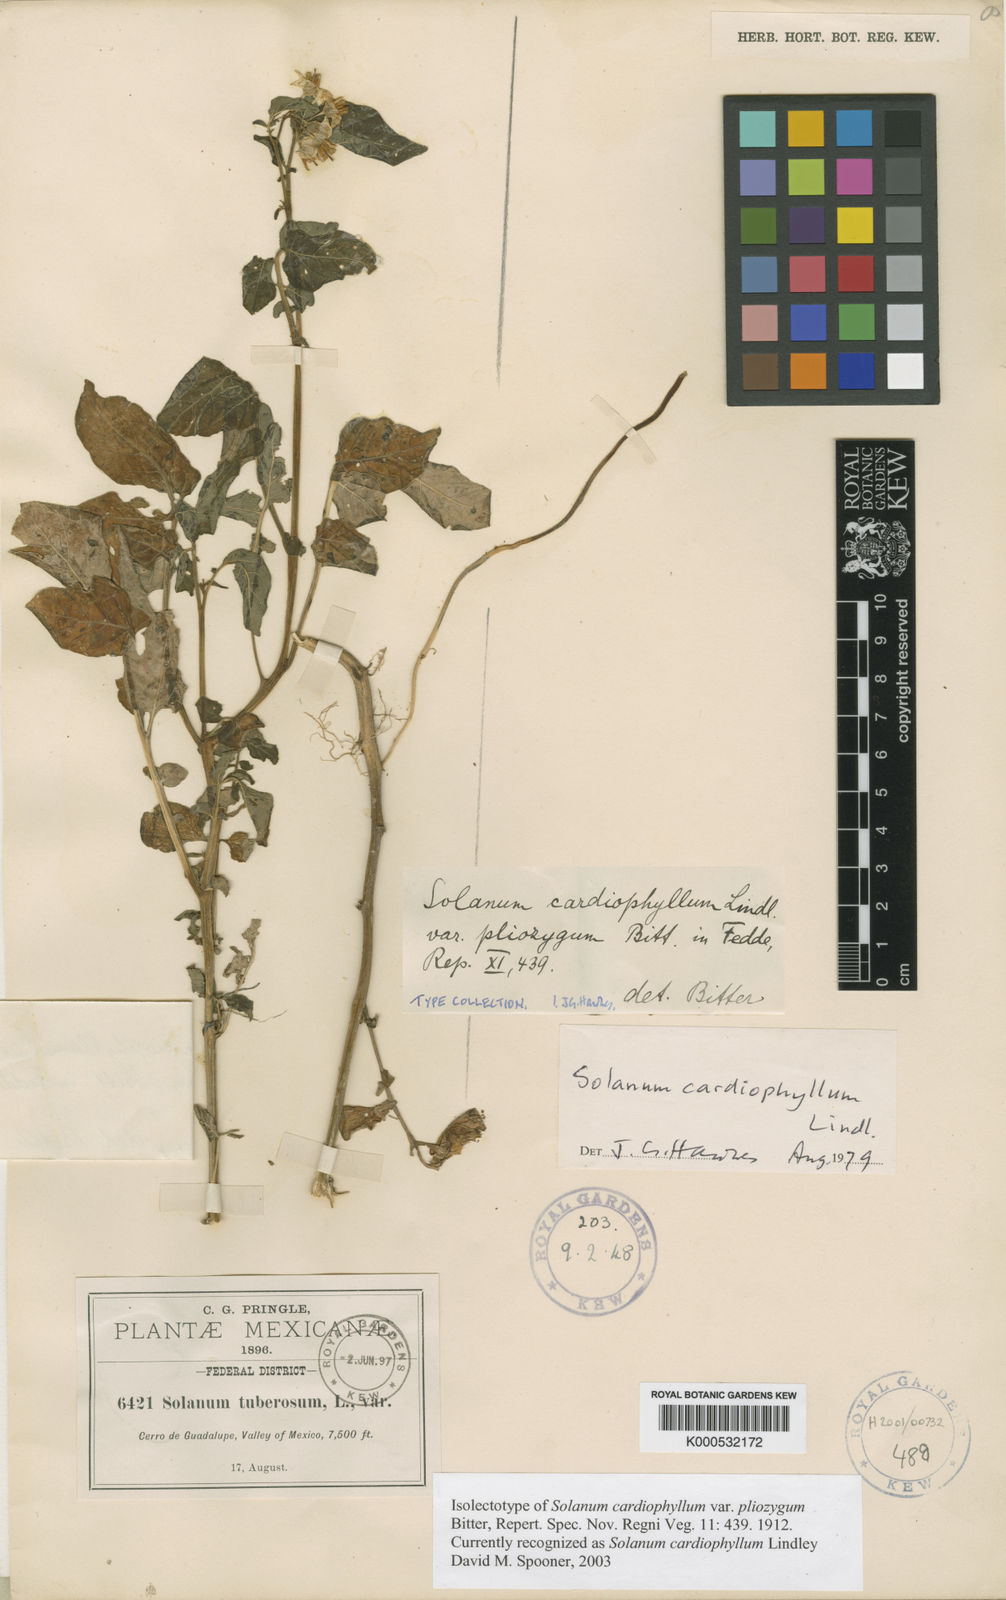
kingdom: Plantae
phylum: Tracheophyta
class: Magnoliopsida
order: Solanales
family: Solanaceae
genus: Solanum
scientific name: Solanum cardiophyllum
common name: Heartleaf horsenettle
